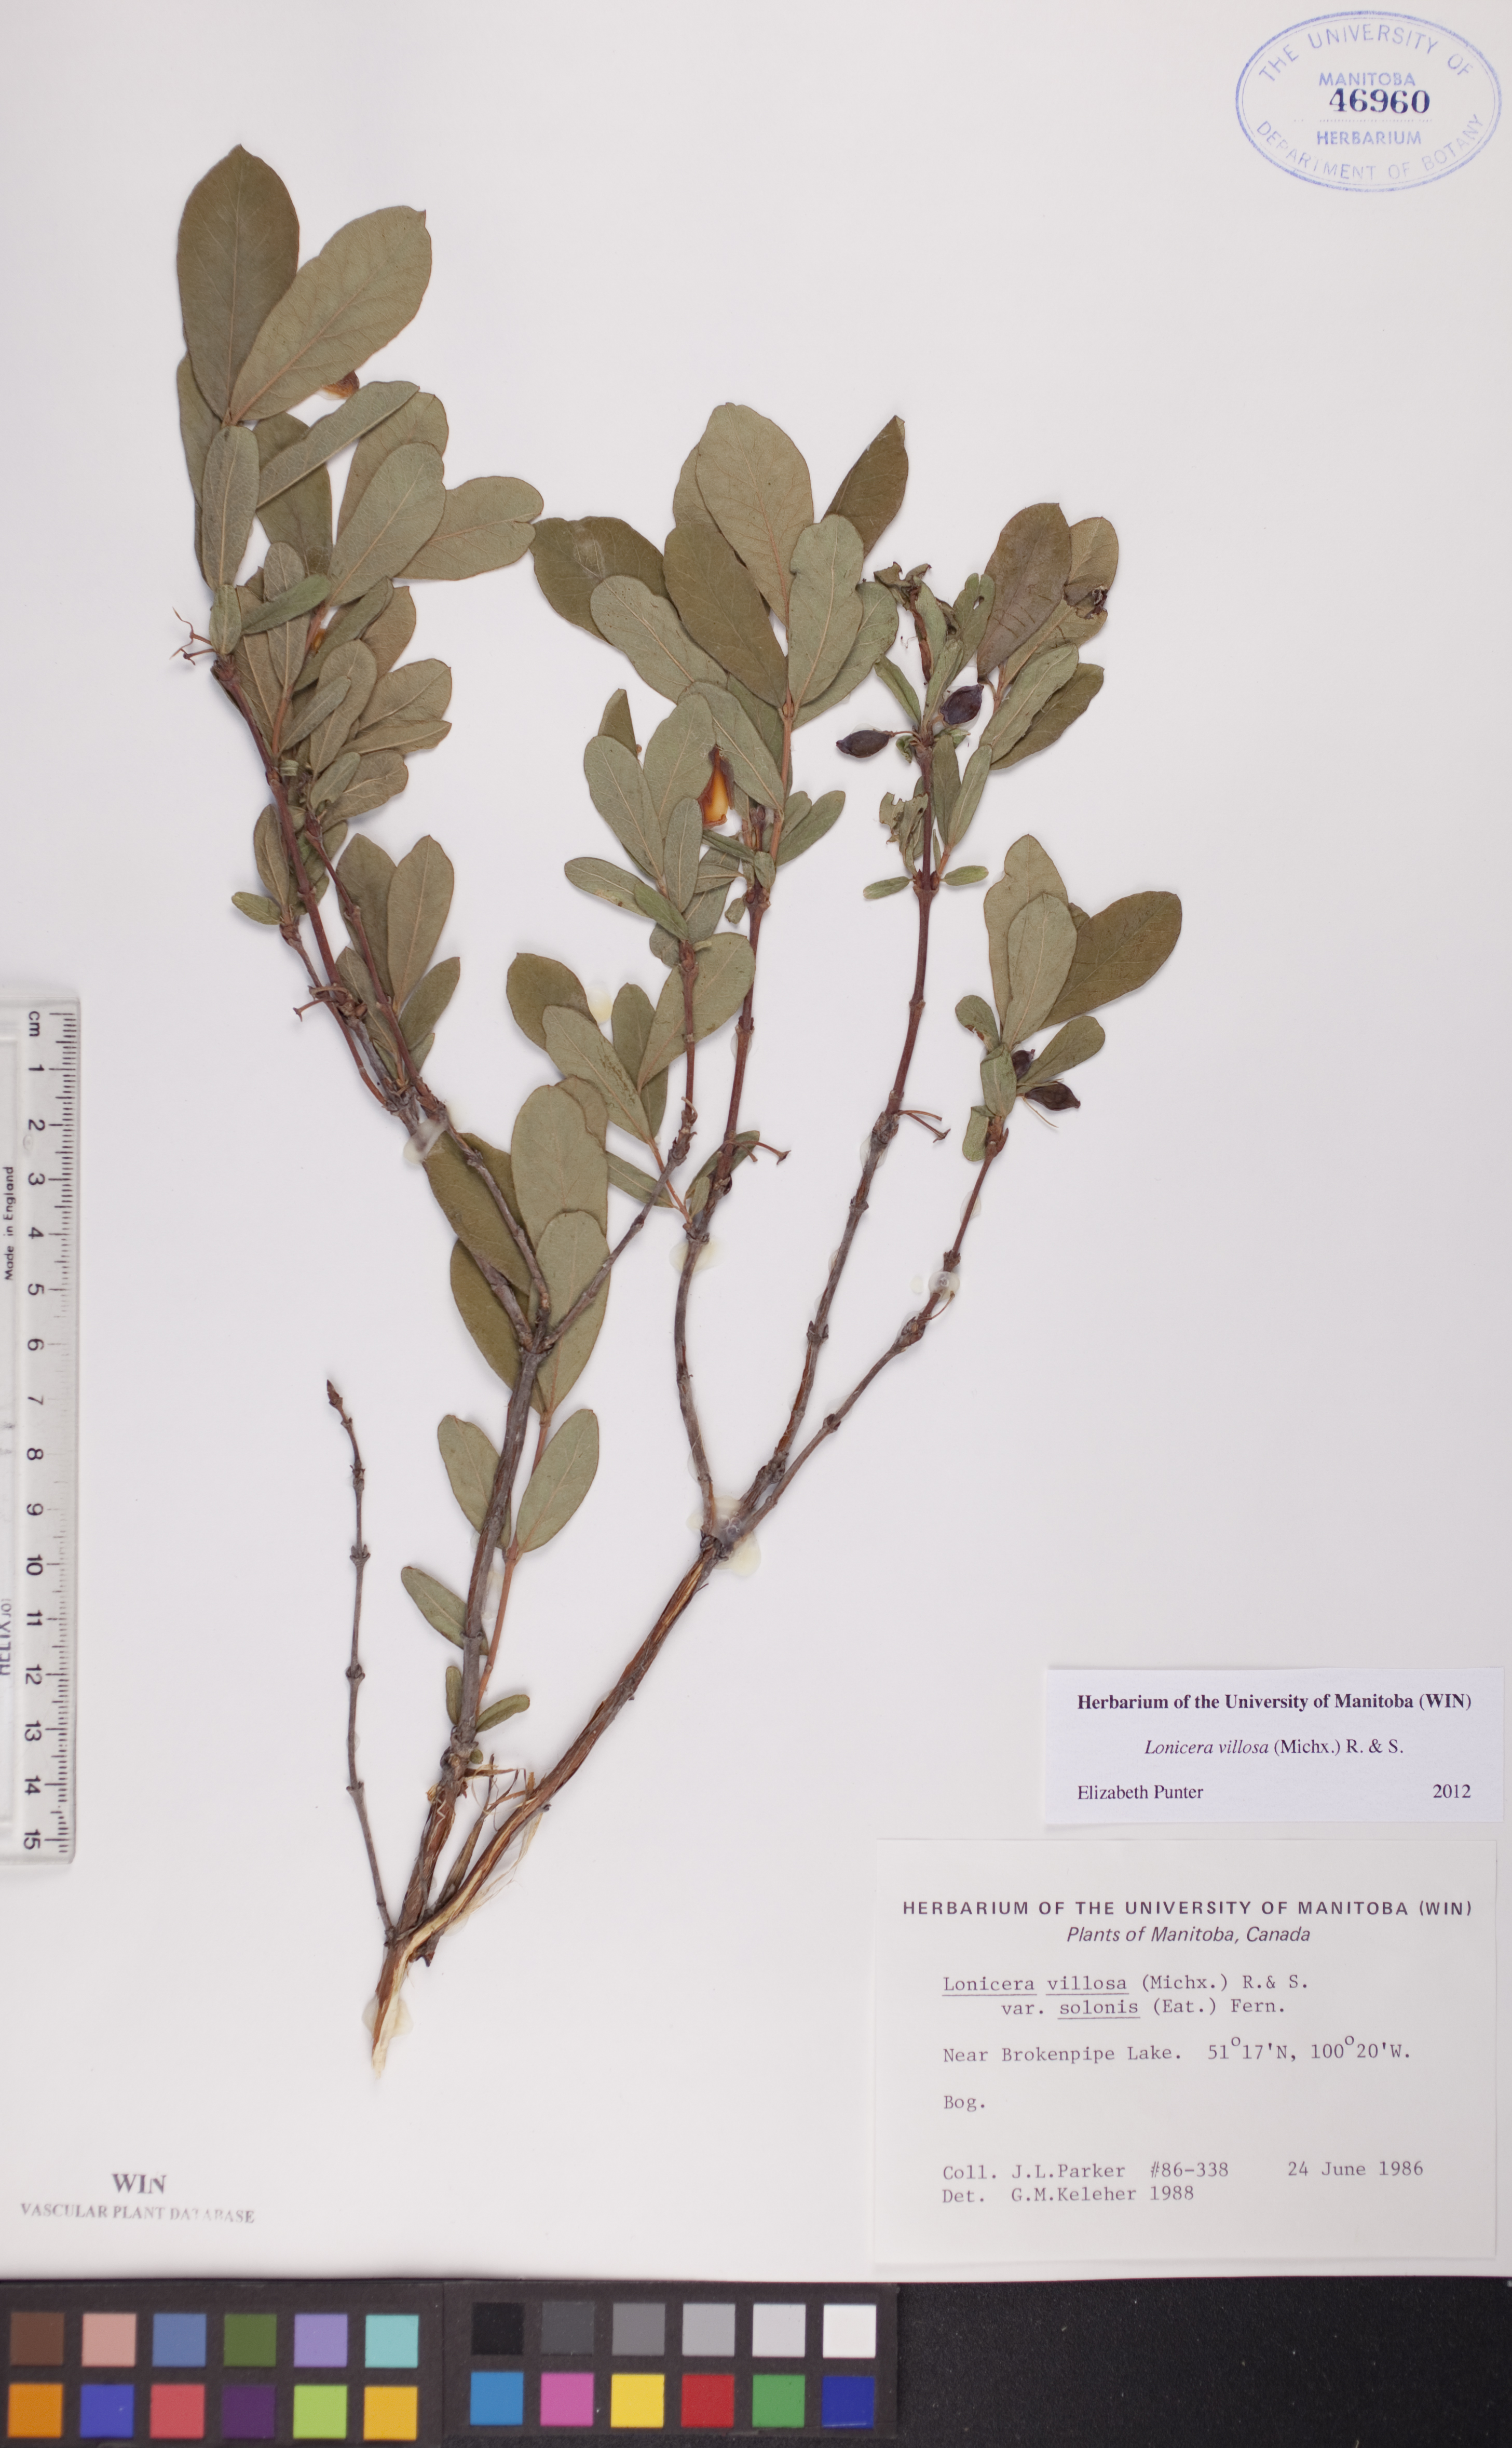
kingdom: Plantae
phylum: Tracheophyta
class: Magnoliopsida
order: Dipsacales
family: Caprifoliaceae
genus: Lonicera
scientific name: Lonicera villosa
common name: Mountain fly-honeysuckle
